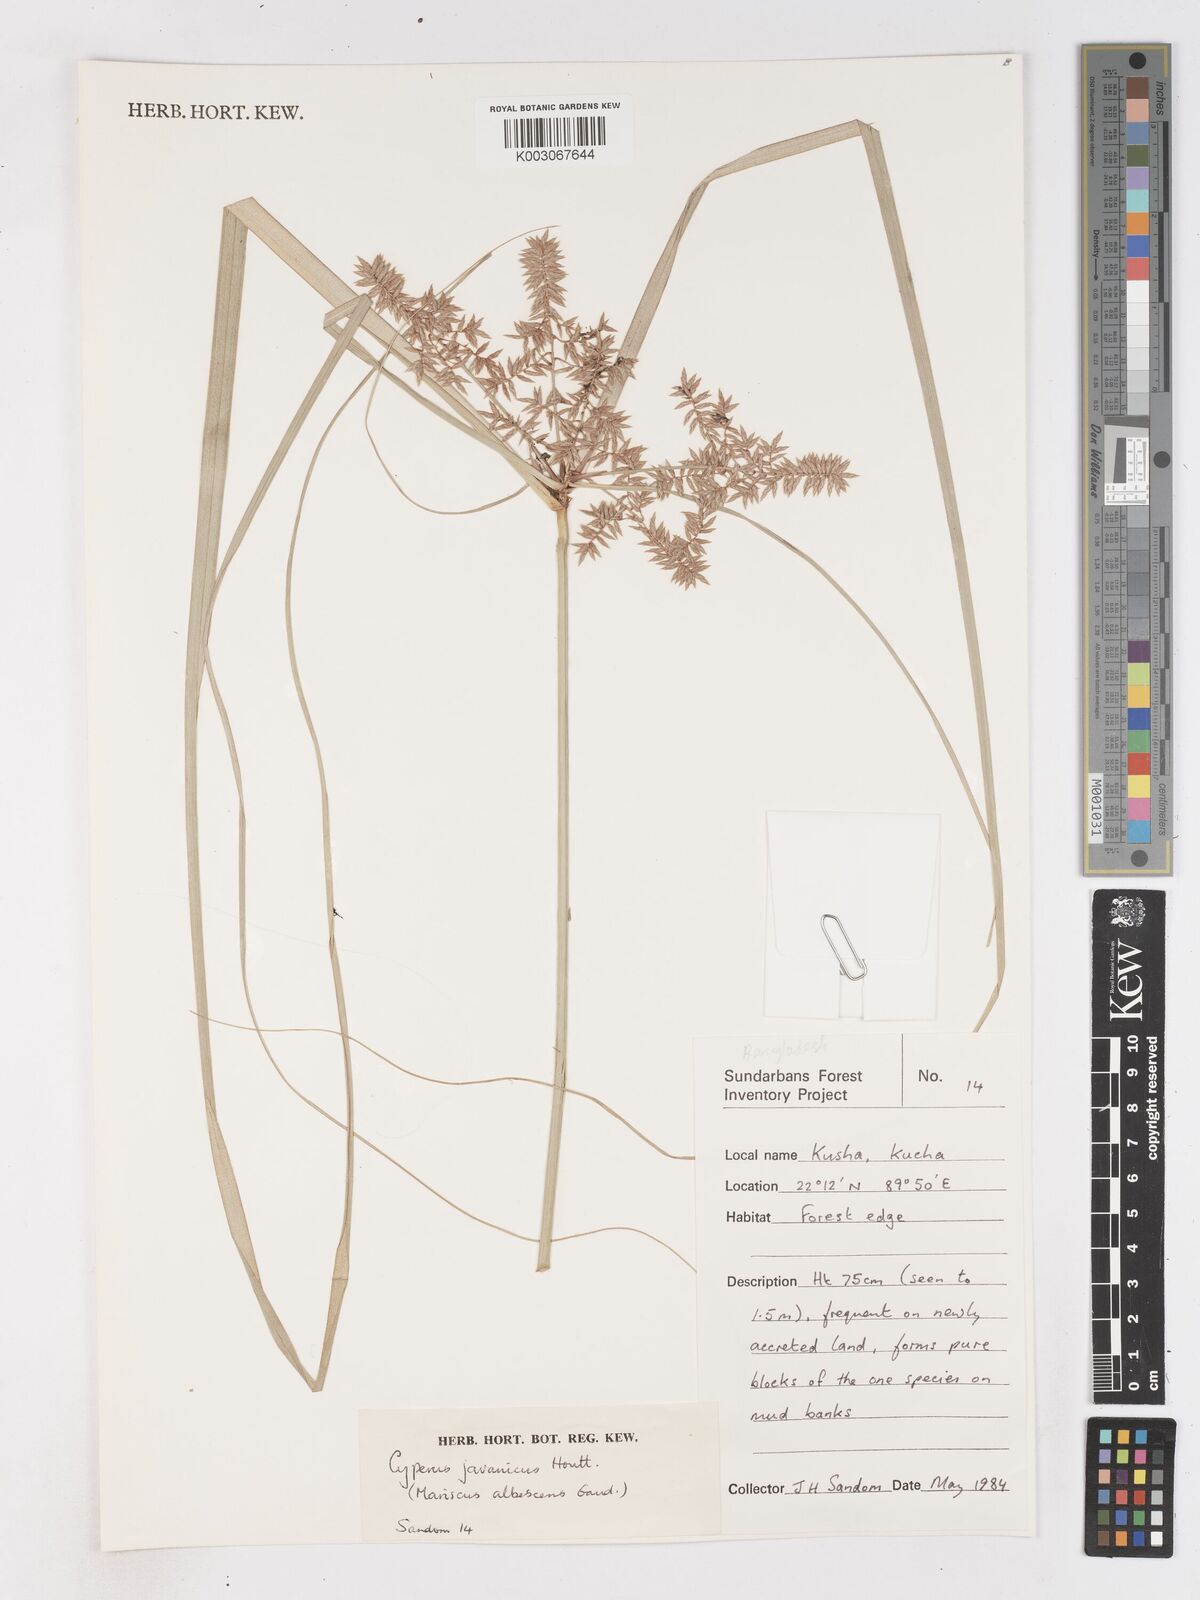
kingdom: Plantae
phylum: Tracheophyta
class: Liliopsida
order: Poales
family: Cyperaceae
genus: Cyperus
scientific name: Cyperus javanicus
